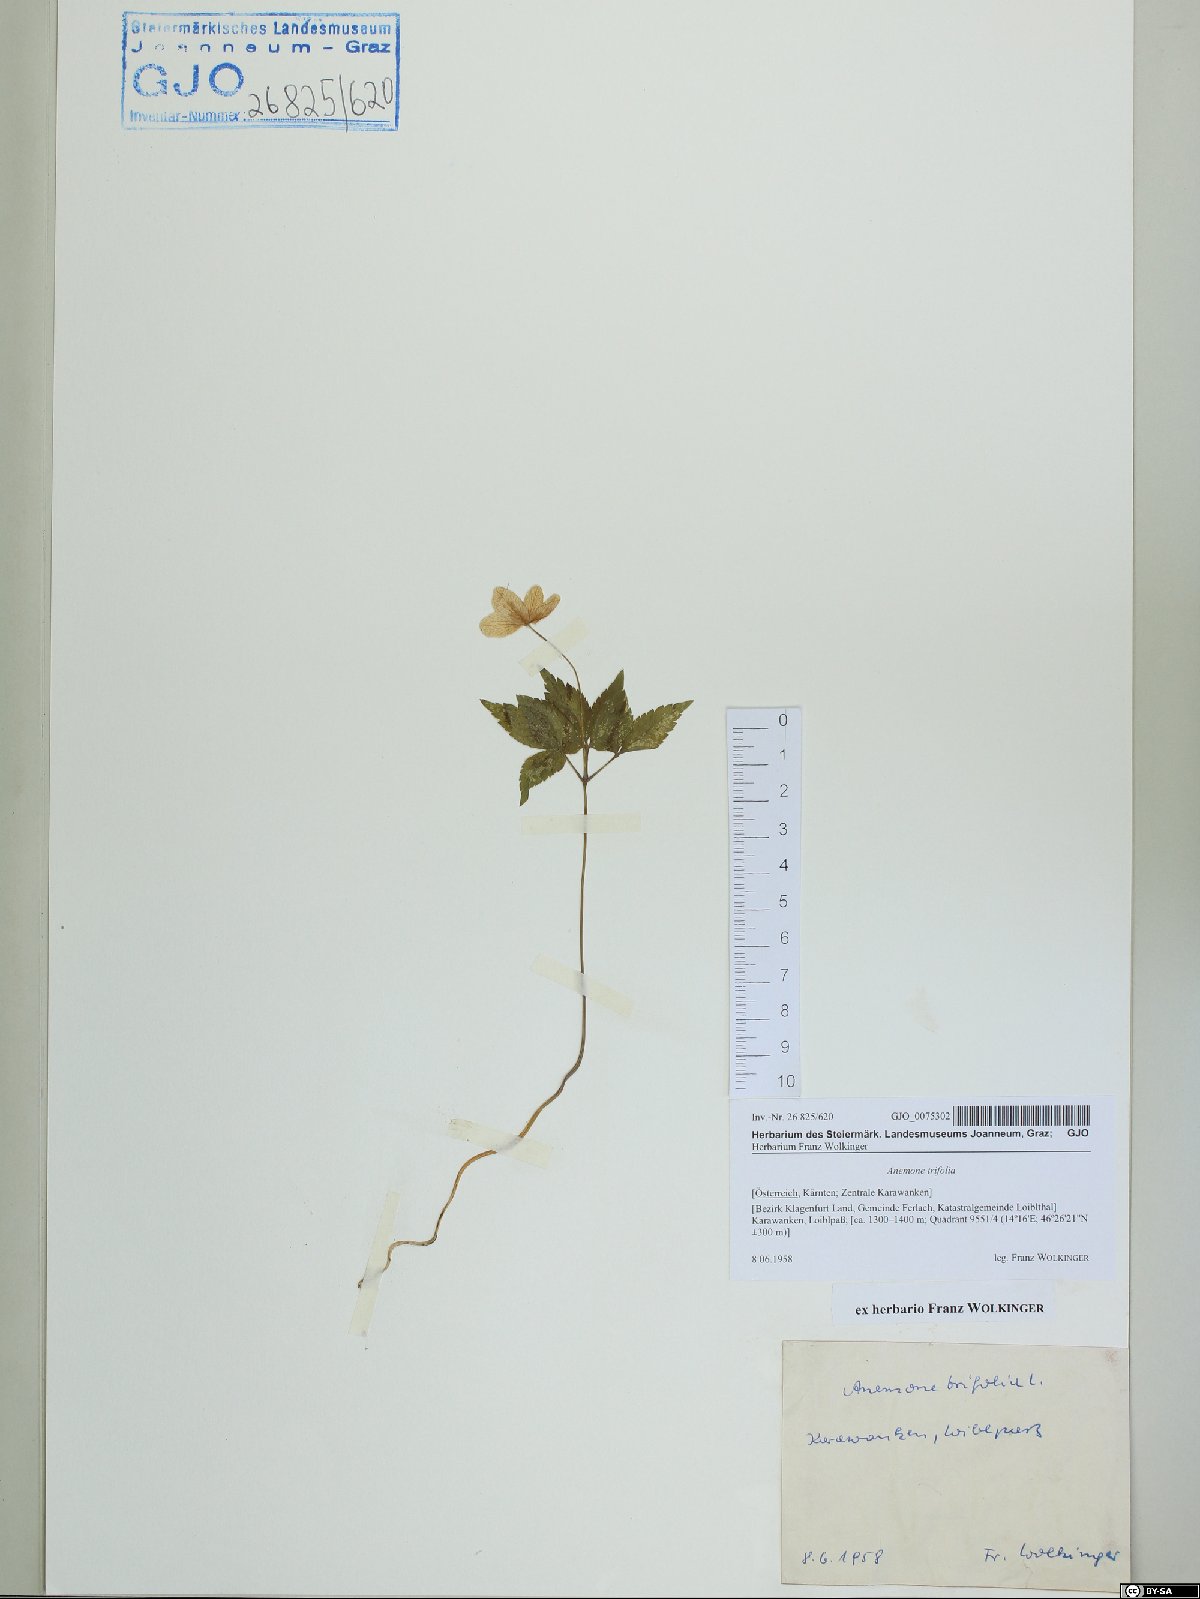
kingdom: Plantae
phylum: Tracheophyta
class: Magnoliopsida
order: Ranunculales
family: Ranunculaceae
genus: Anemone
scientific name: Anemone trifolia
